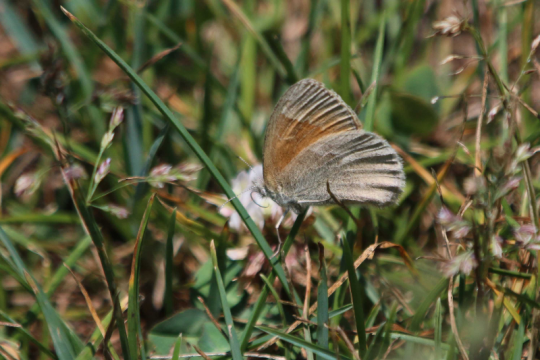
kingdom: Animalia
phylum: Arthropoda
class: Insecta
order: Lepidoptera
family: Nymphalidae
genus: Coenonympha
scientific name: Coenonympha tullia
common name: Large Heath
